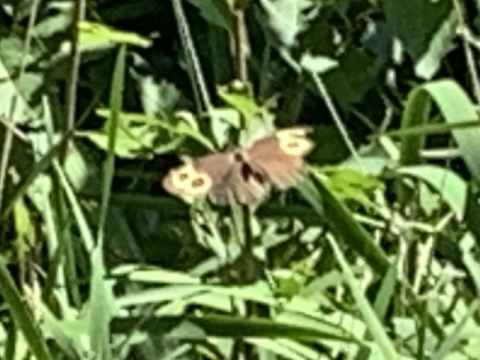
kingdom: Animalia
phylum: Arthropoda
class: Insecta
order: Lepidoptera
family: Nymphalidae
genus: Cercyonis
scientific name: Cercyonis pegala
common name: Common Wood-Nymph
